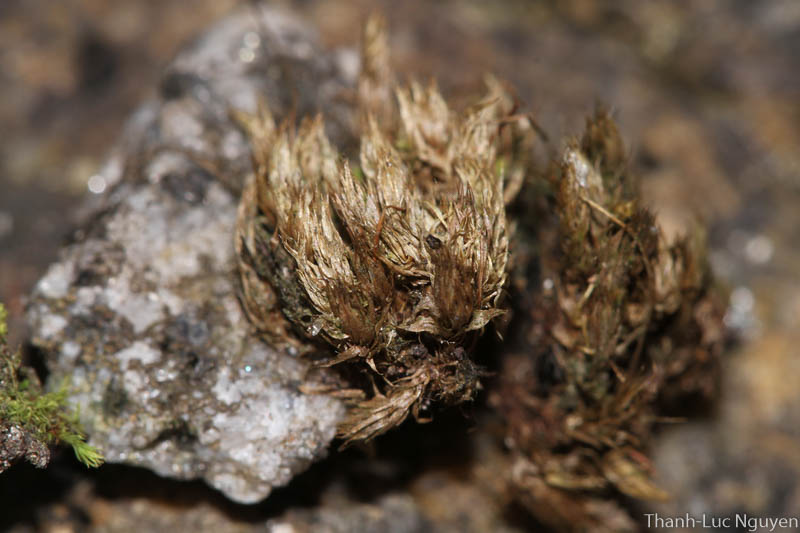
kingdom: Plantae
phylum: Bryophyta
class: Bryopsida
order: Bryales
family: Bryaceae
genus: Bryum
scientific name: Bryum
